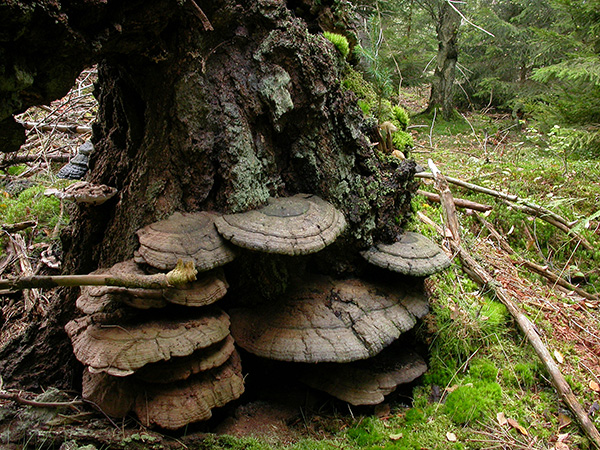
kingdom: Fungi
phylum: Basidiomycota
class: Agaricomycetes
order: Polyporales
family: Polyporaceae
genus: Ganoderma
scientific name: Ganoderma applanatum
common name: flad lakporesvamp
